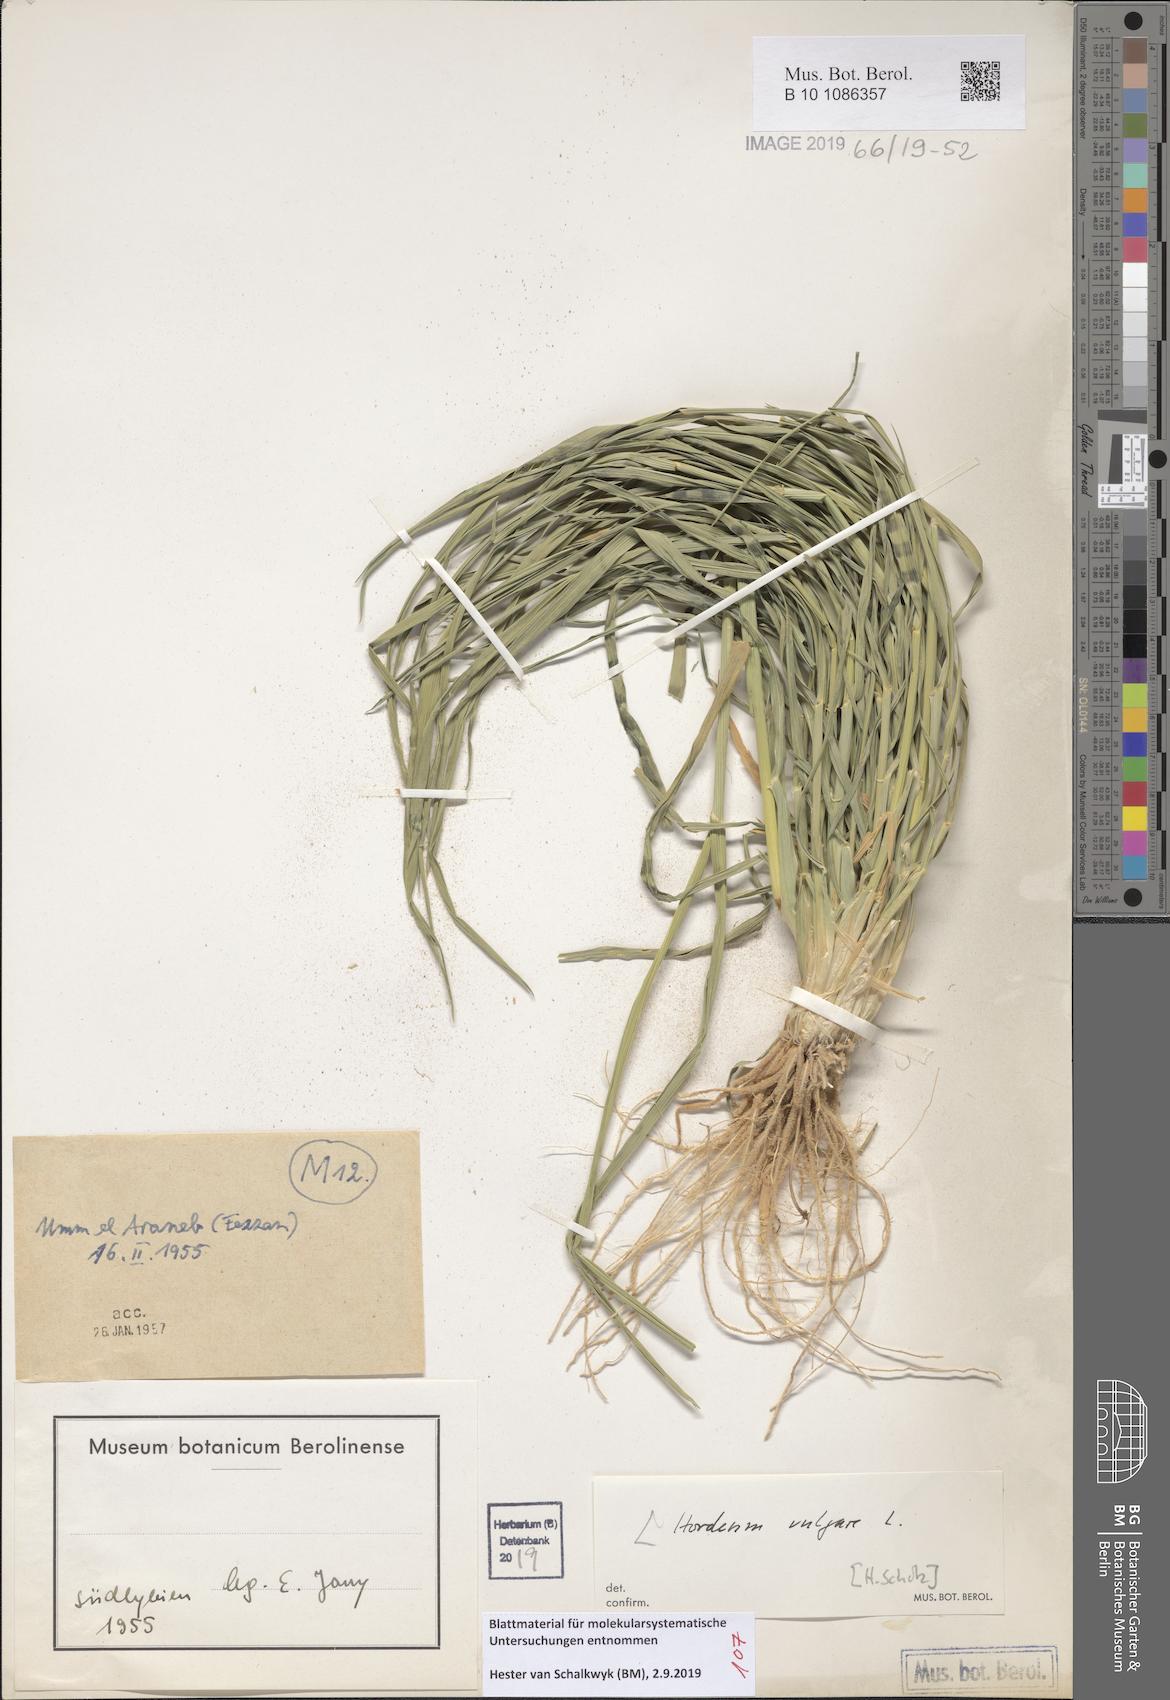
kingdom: Plantae
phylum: Tracheophyta
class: Liliopsida
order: Poales
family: Poaceae
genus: Hordeum
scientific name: Hordeum vulgare
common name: Common barley
